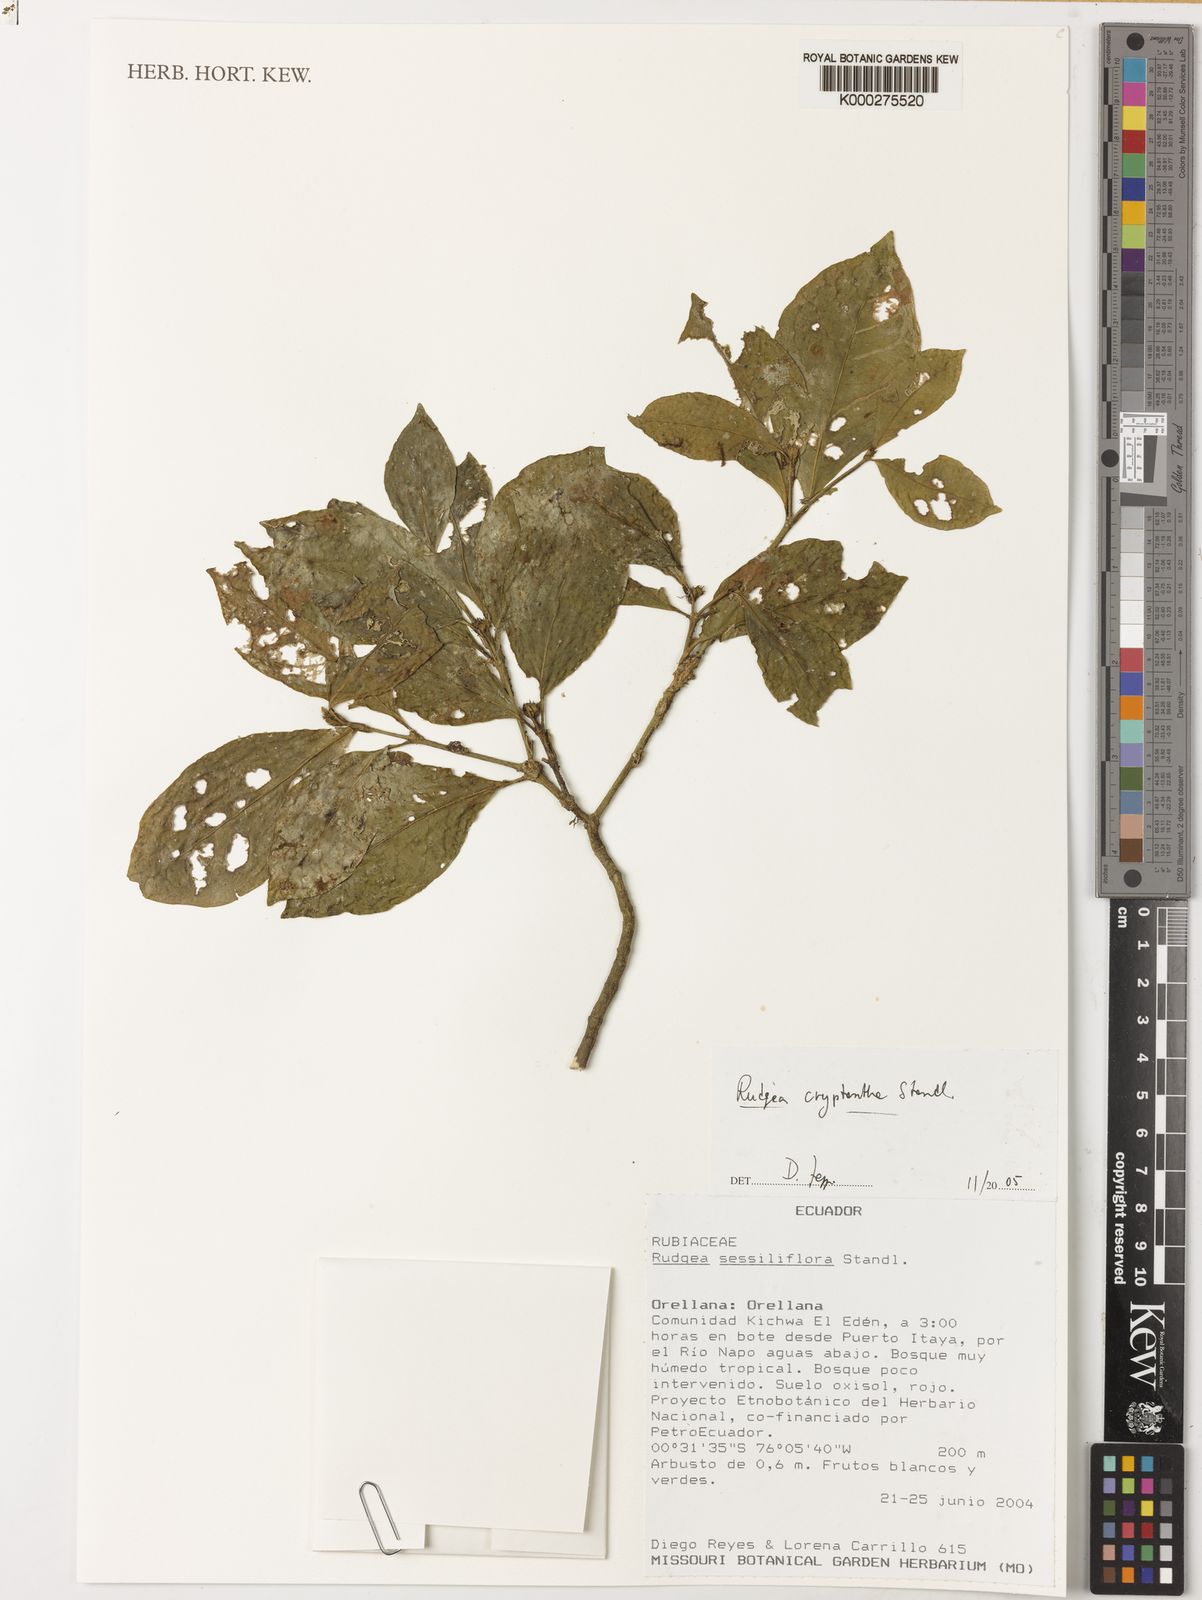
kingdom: Plantae
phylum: Tracheophyta
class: Magnoliopsida
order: Gentianales
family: Rubiaceae
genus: Rudgea
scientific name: Rudgea cryptantha
